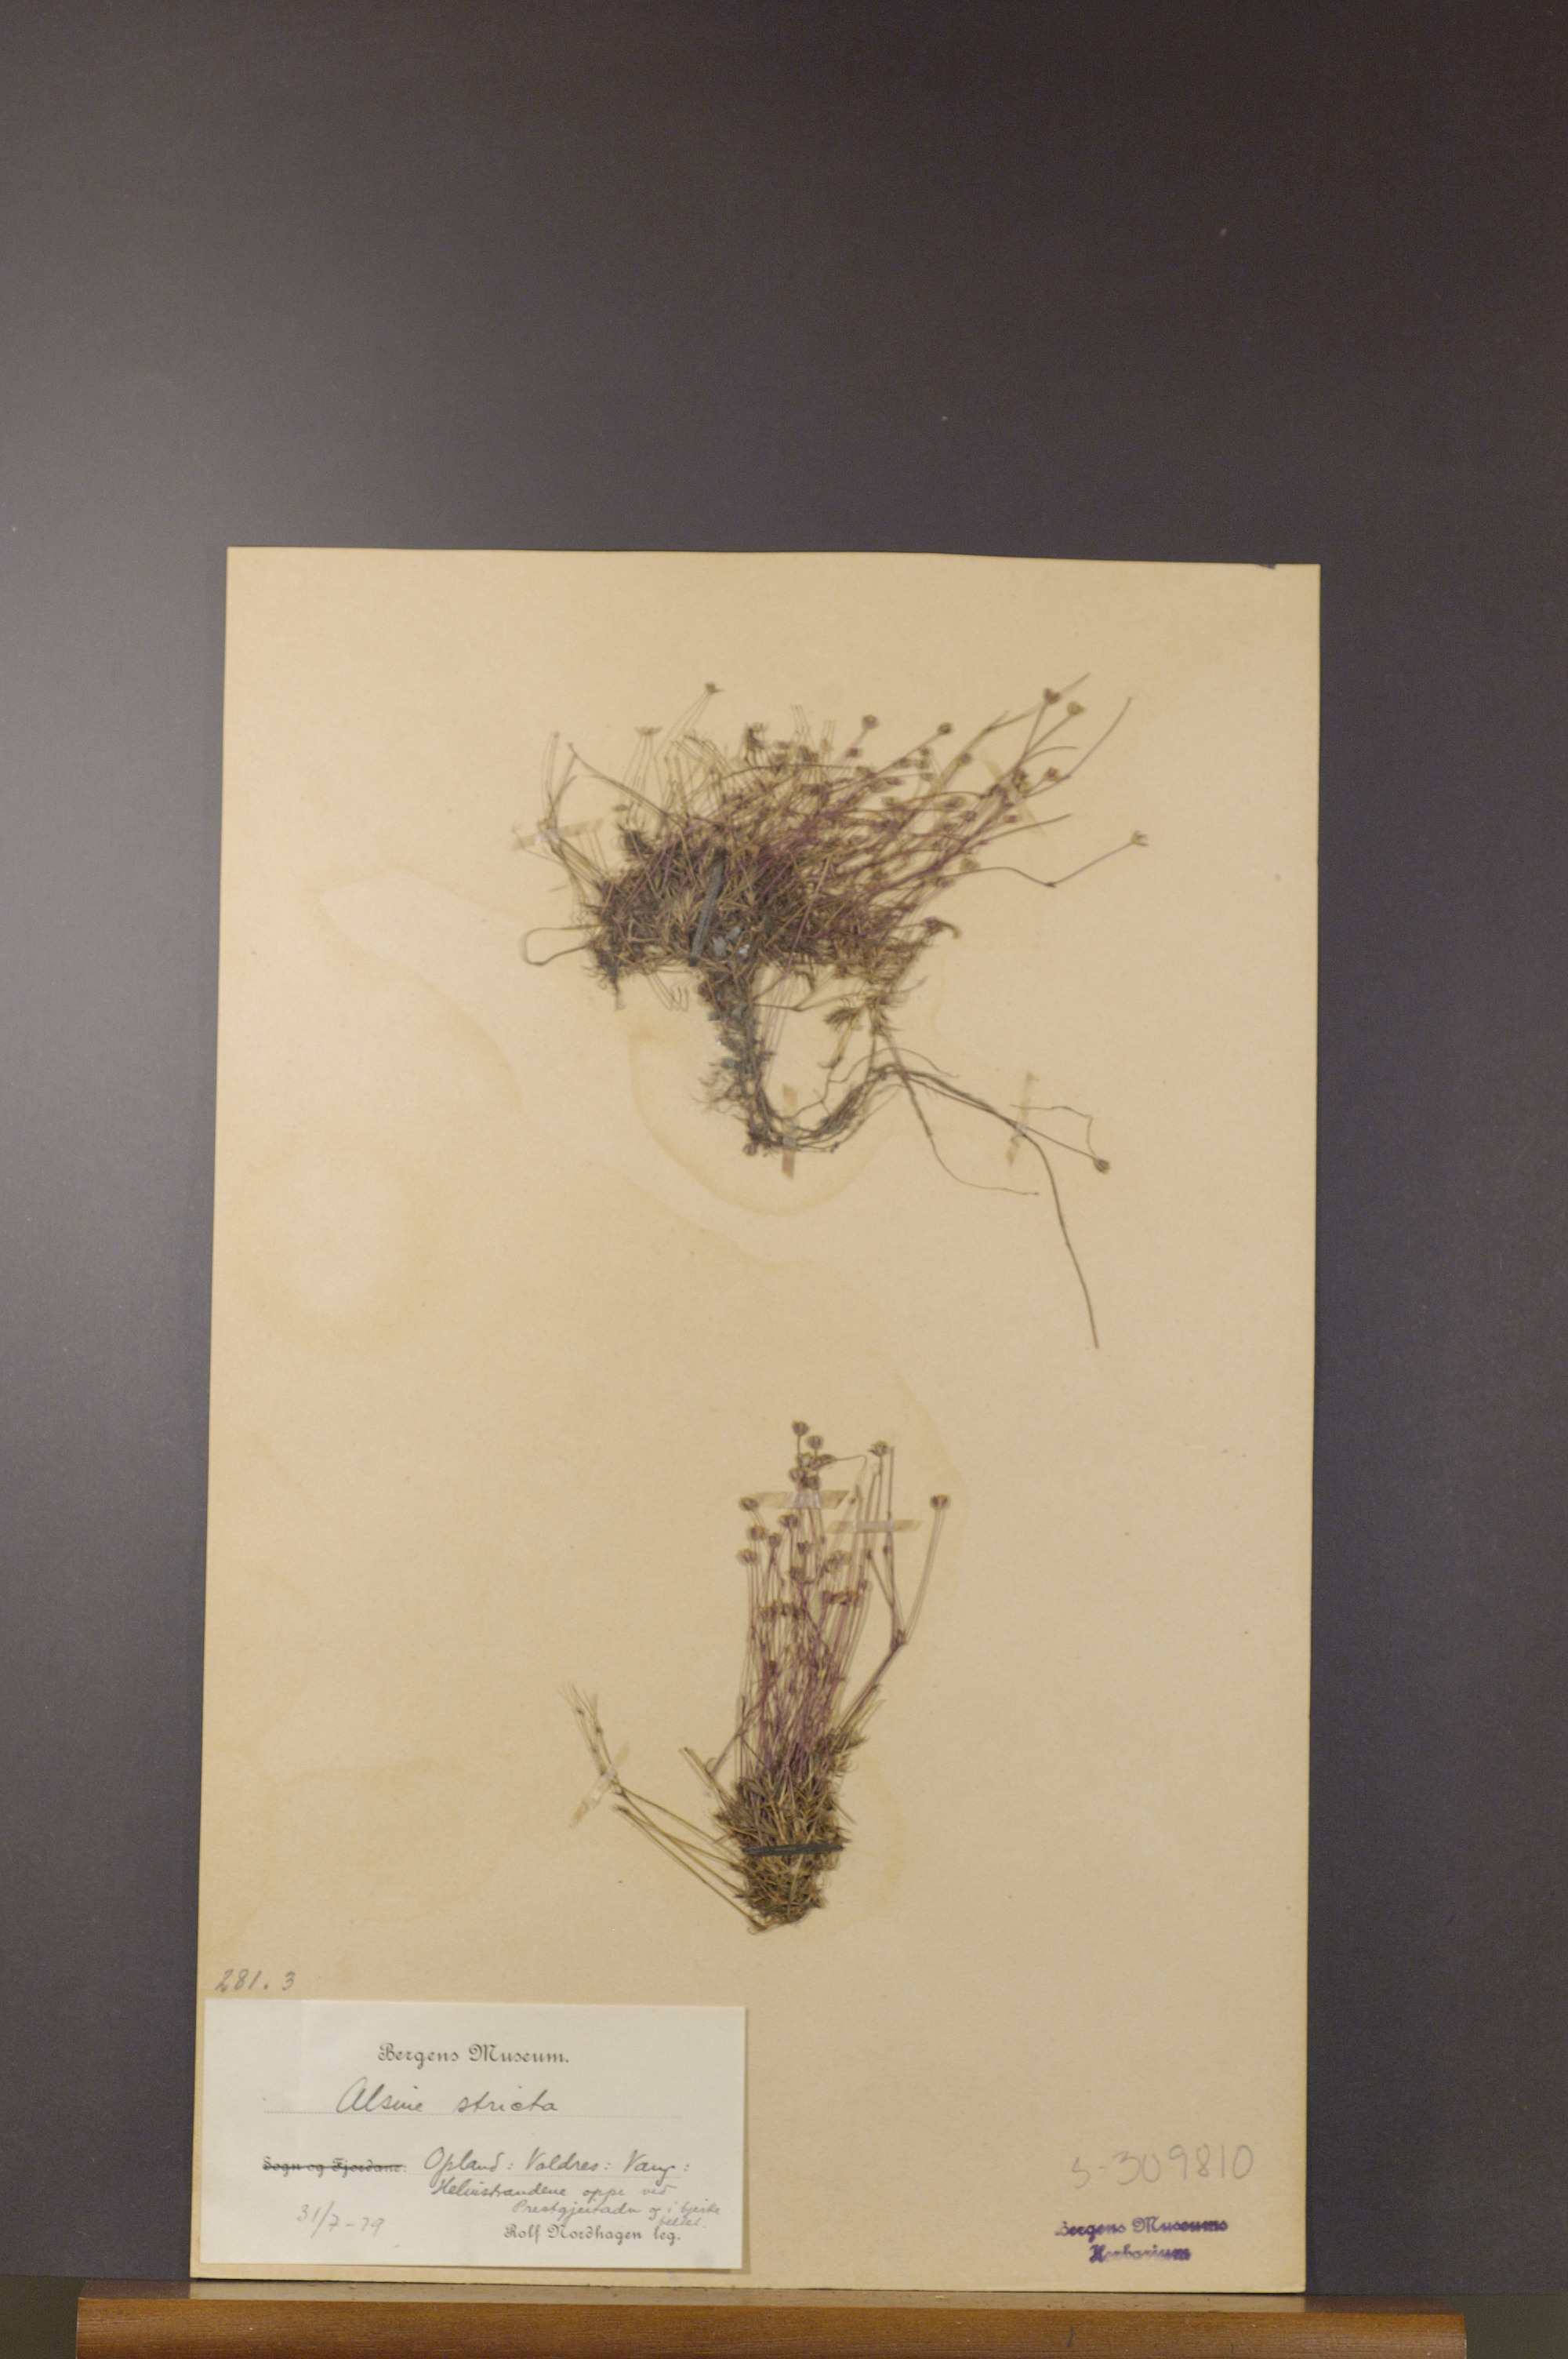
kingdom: Plantae
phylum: Tracheophyta
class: Magnoliopsida
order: Caryophyllales
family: Caryophyllaceae
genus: Sabulina
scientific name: Sabulina stricta
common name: Bog sandwort
